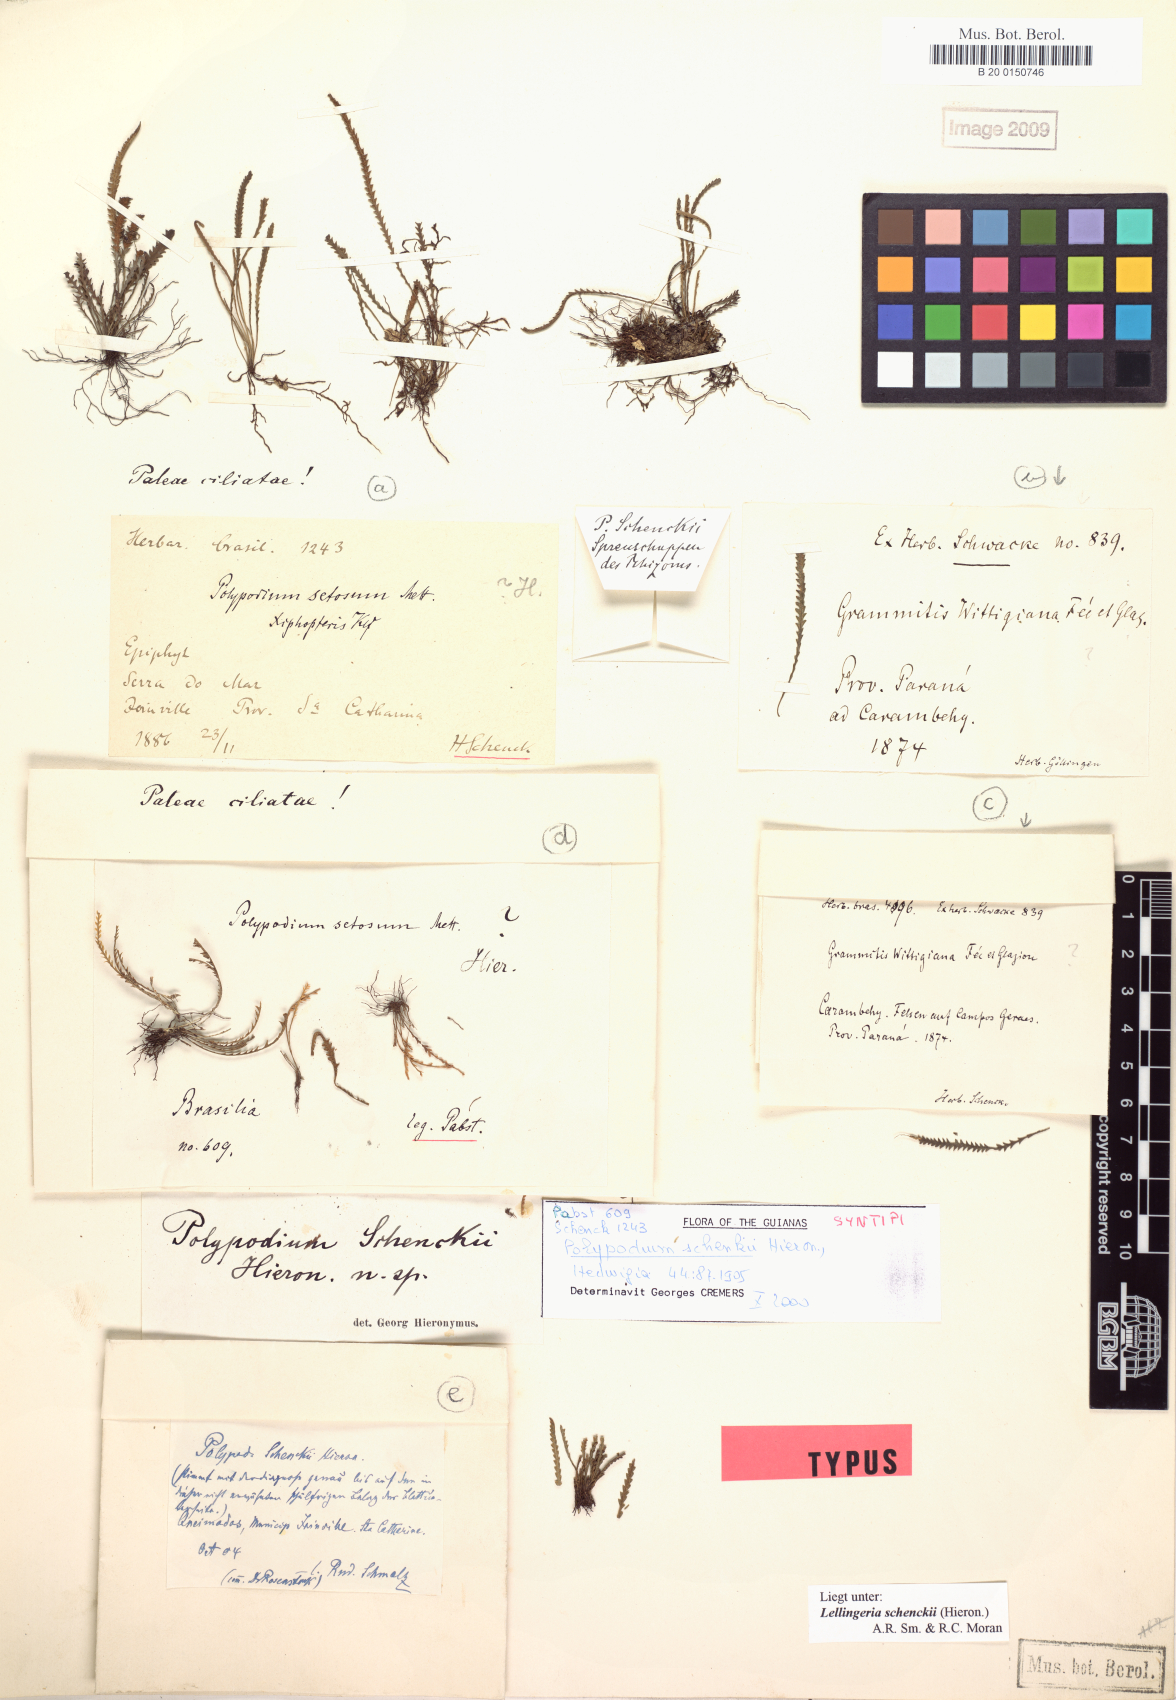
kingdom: Plantae
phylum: Tracheophyta
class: Polypodiopsida
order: Polypodiales
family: Polypodiaceae
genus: Leucotrichum
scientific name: Leucotrichum schenckii
